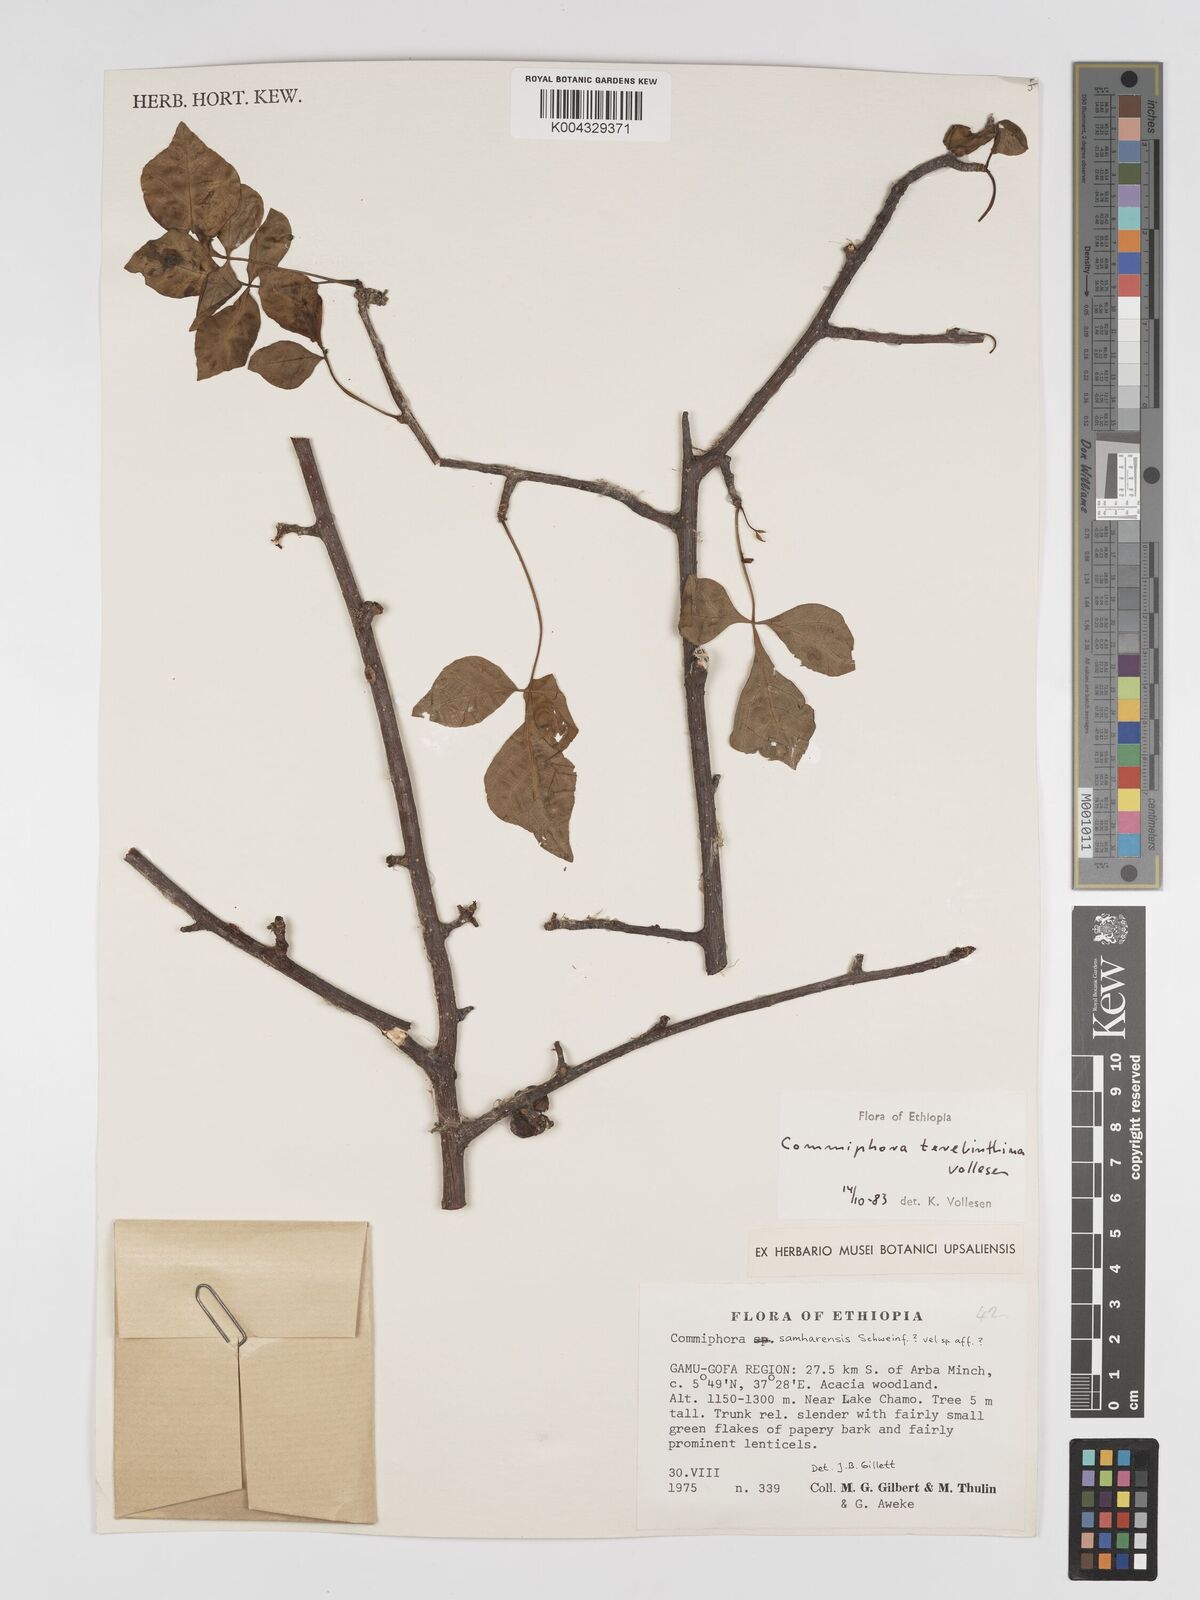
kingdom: Plantae
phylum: Tracheophyta
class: Magnoliopsida
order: Sapindales
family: Burseraceae
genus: Commiphora
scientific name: Commiphora samharensis
